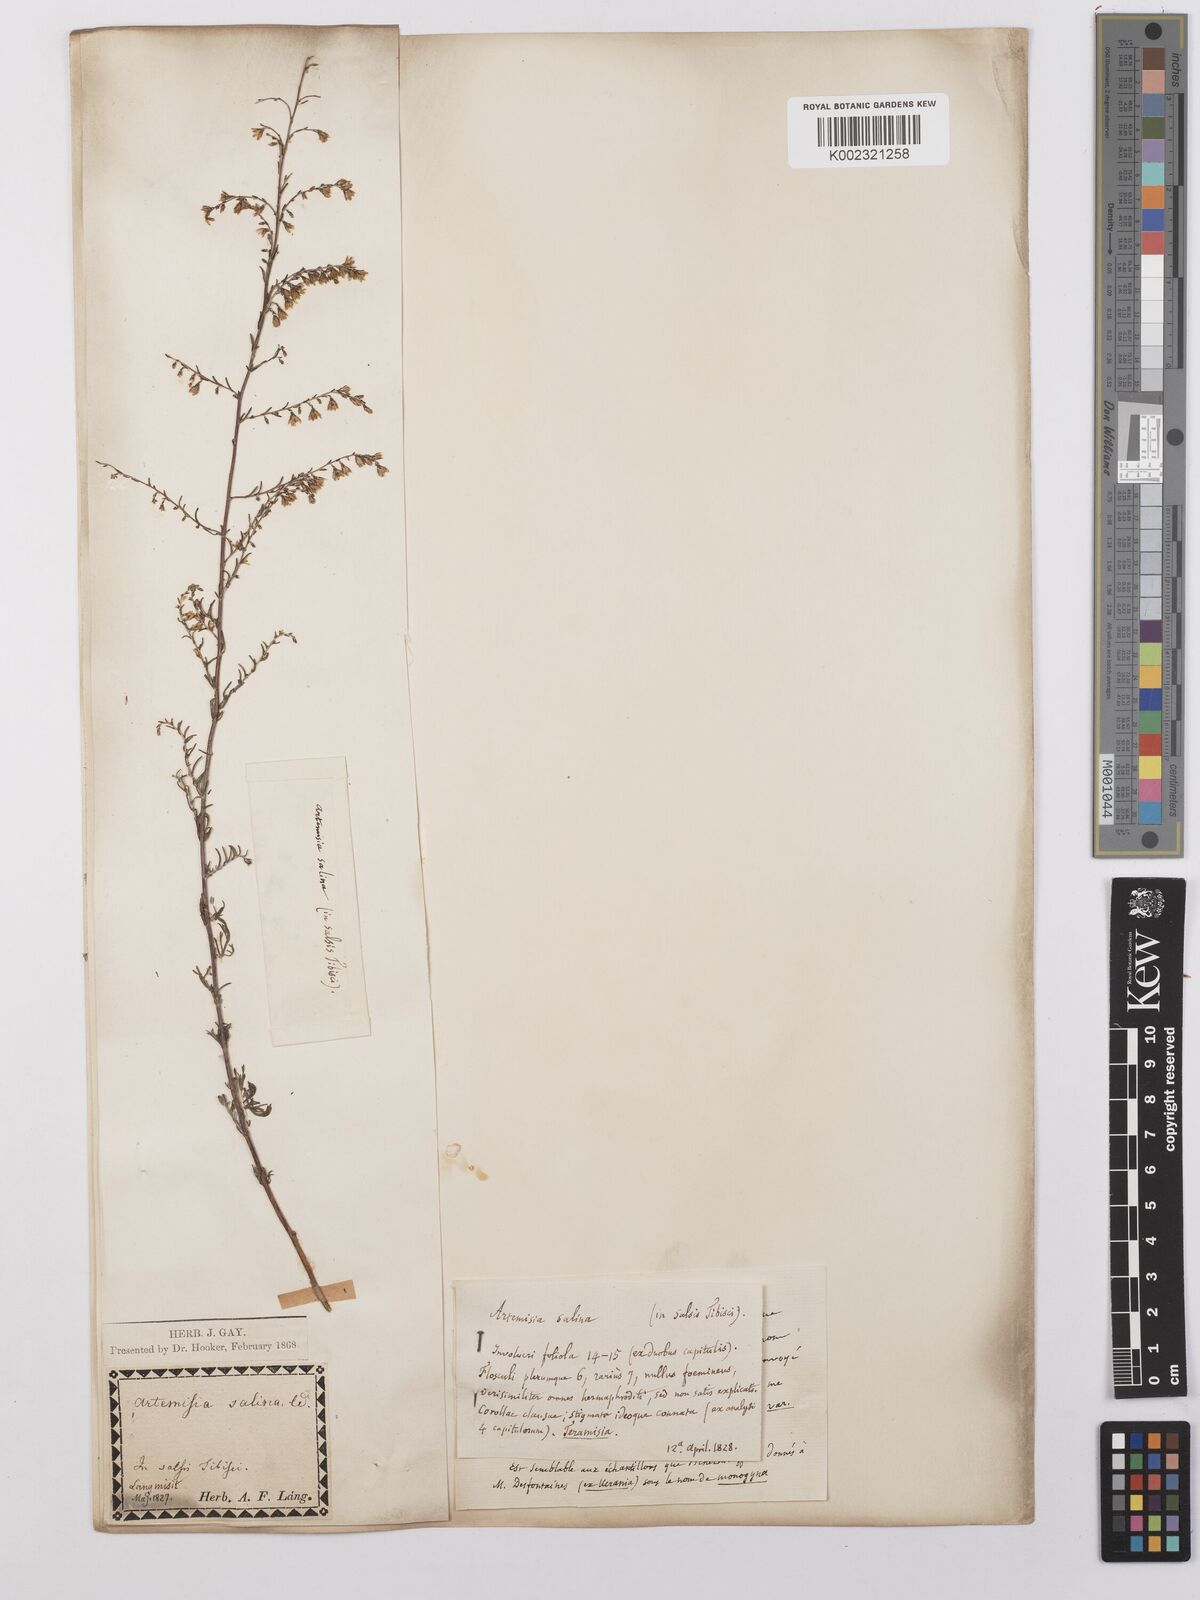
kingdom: Plantae
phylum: Tracheophyta
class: Magnoliopsida
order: Asterales
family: Asteraceae
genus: Artemisia
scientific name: Artemisia maritima
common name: Wormseed
